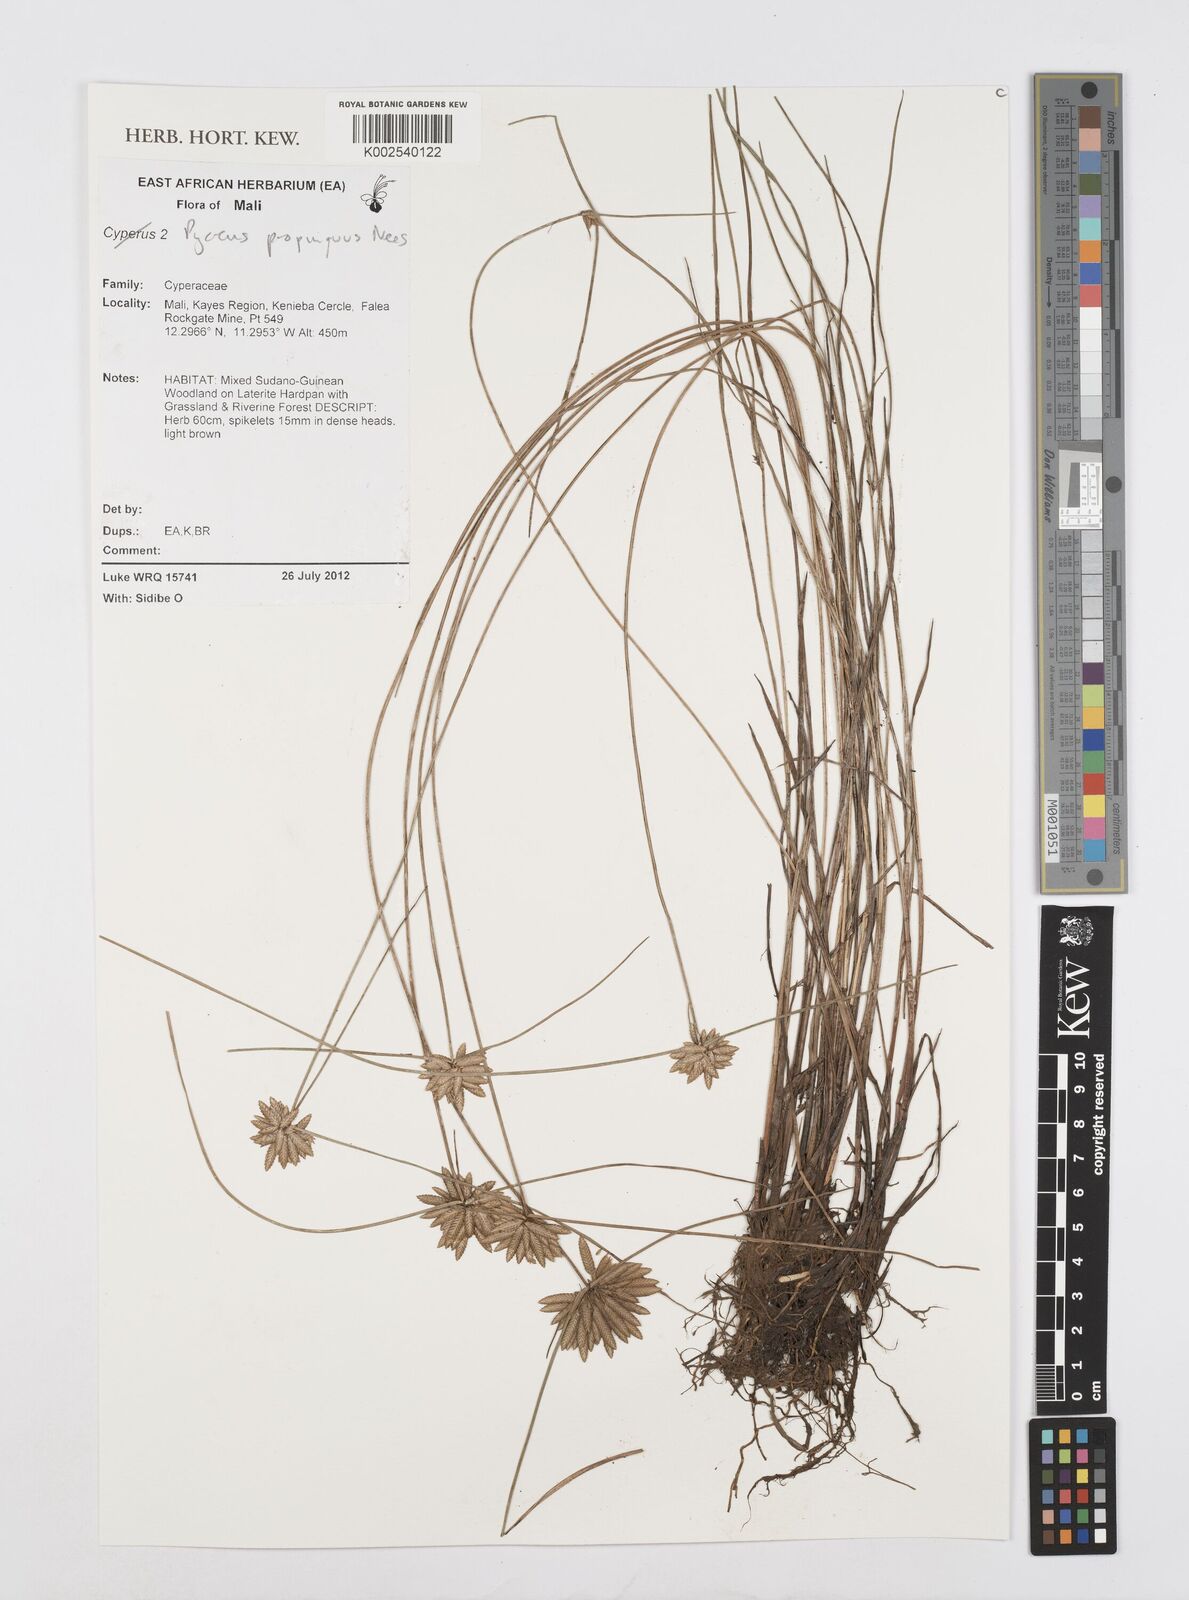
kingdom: Plantae
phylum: Tracheophyta
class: Liliopsida
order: Poales
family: Cyperaceae
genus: Cyperus
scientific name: Cyperus
